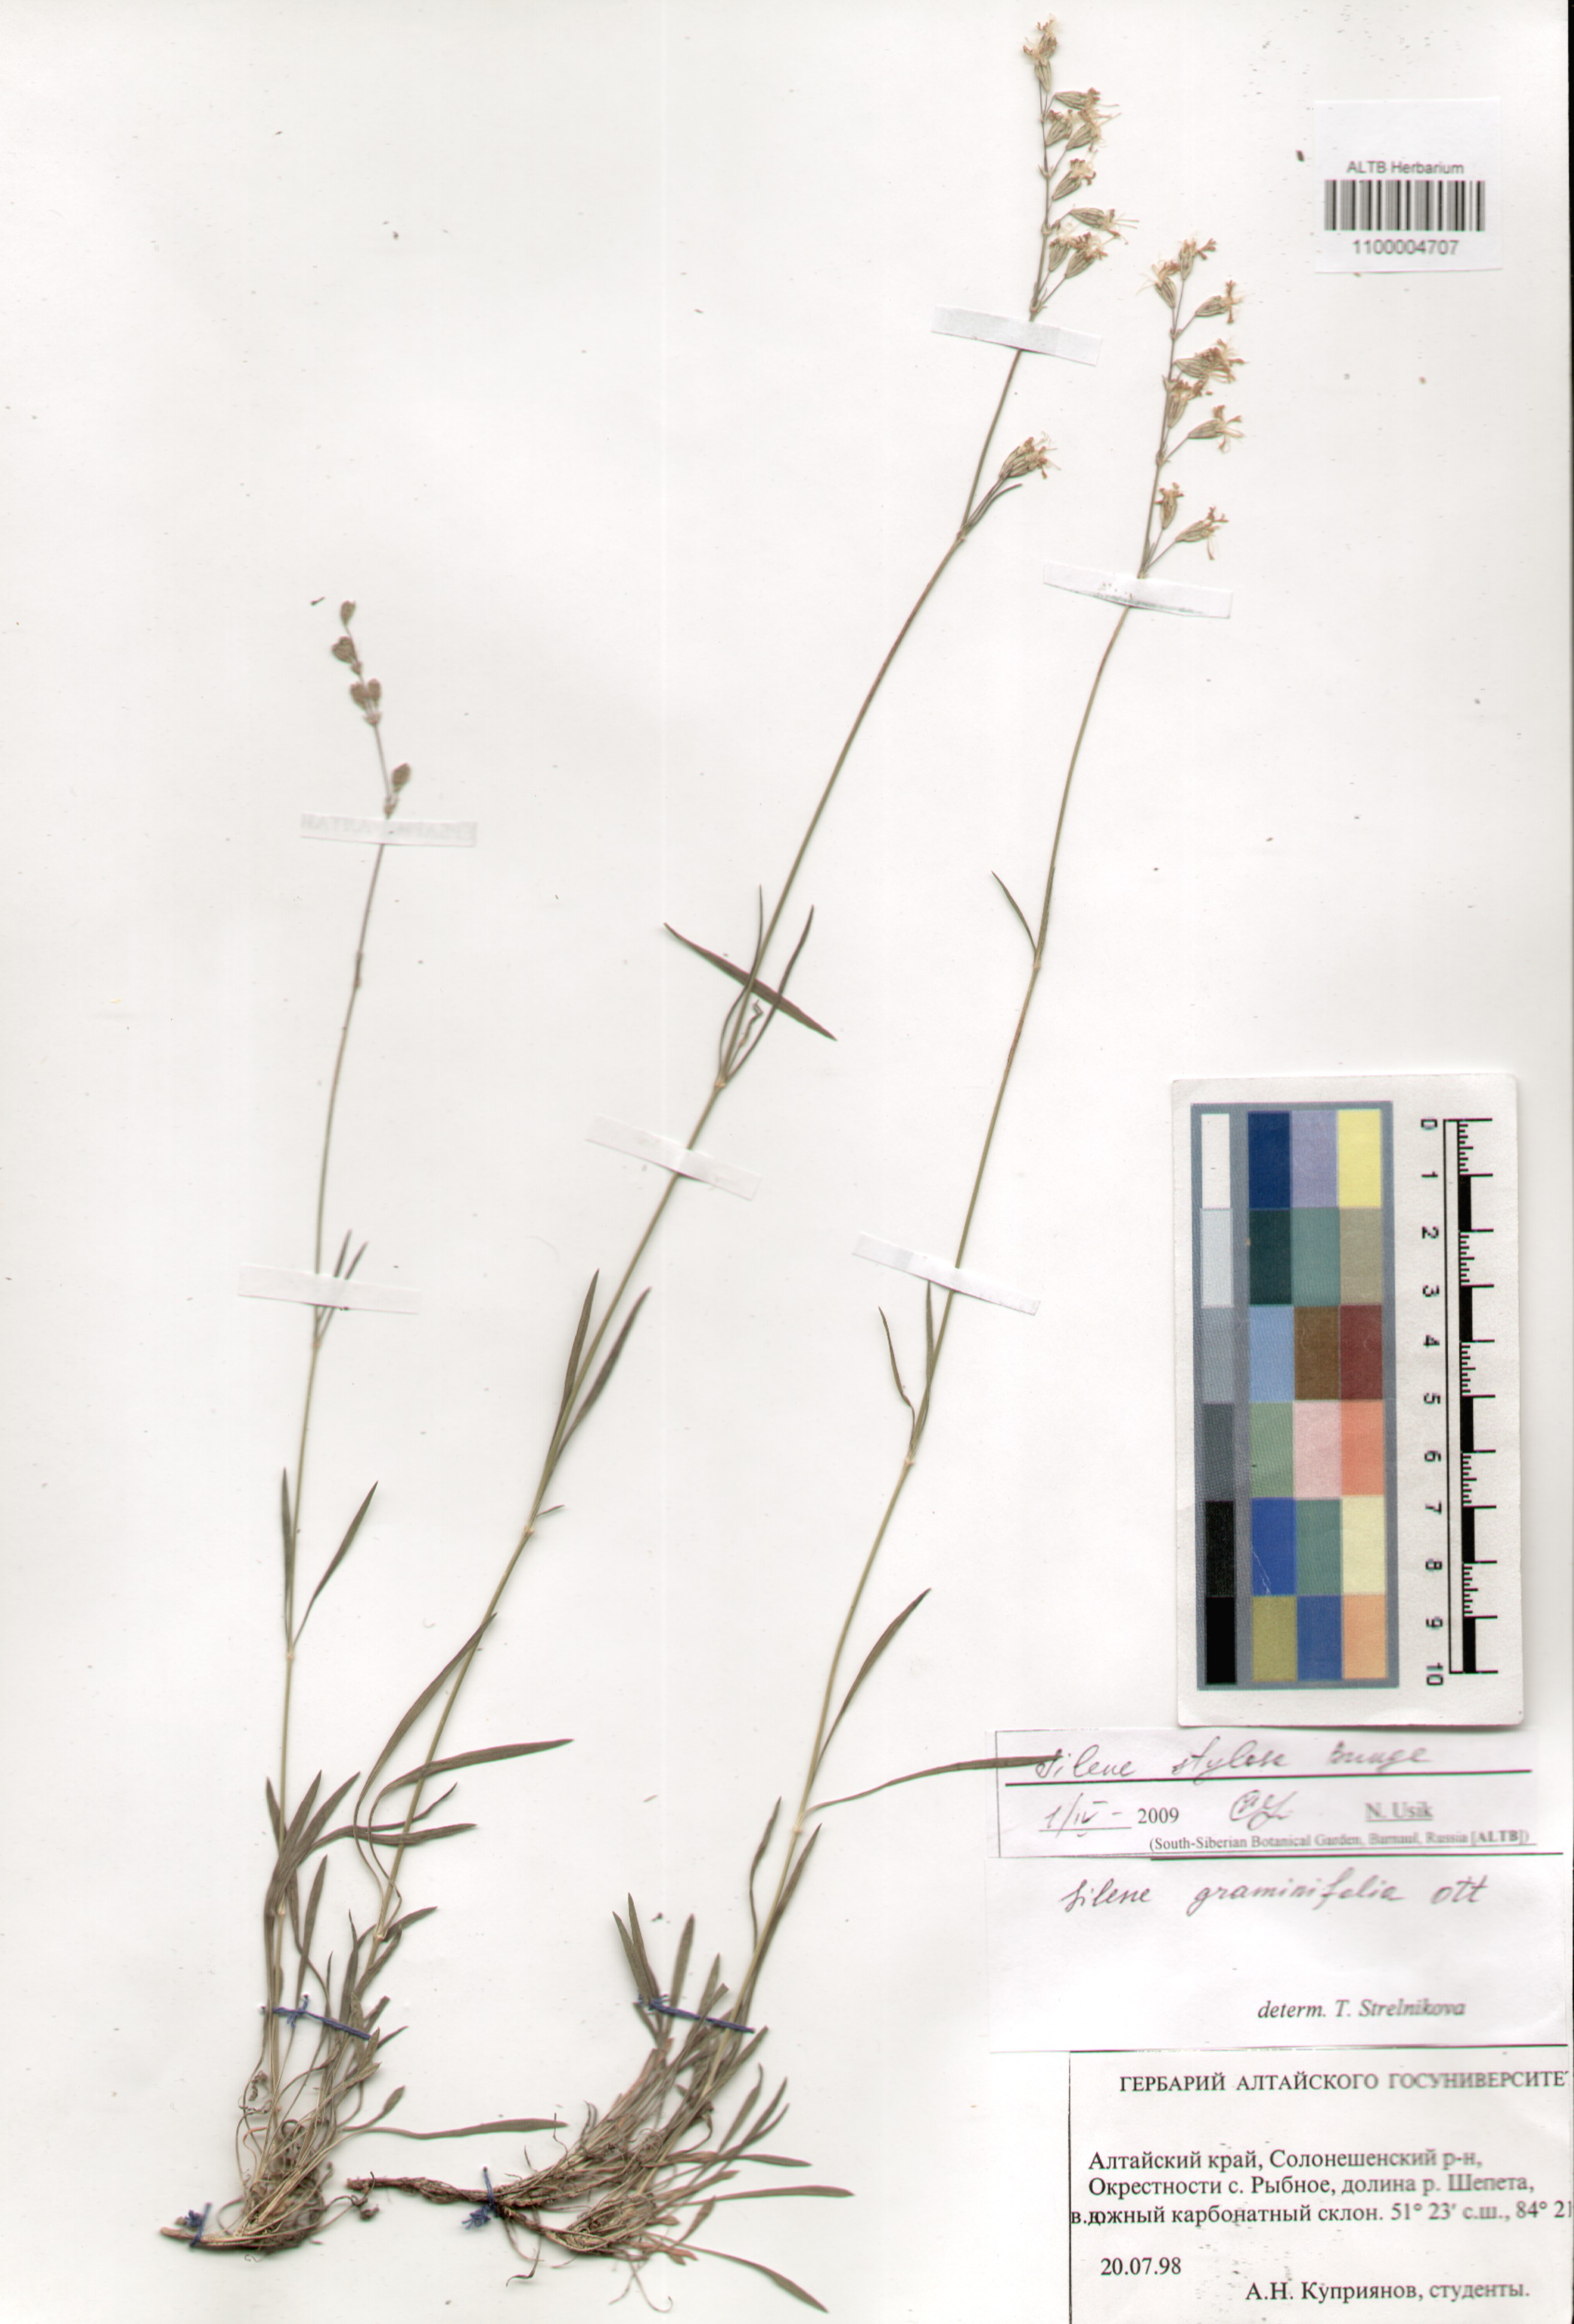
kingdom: Plantae
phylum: Tracheophyta
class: Magnoliopsida
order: Caryophyllales
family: Caryophyllaceae
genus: Silene
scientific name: Silene graminifolia
